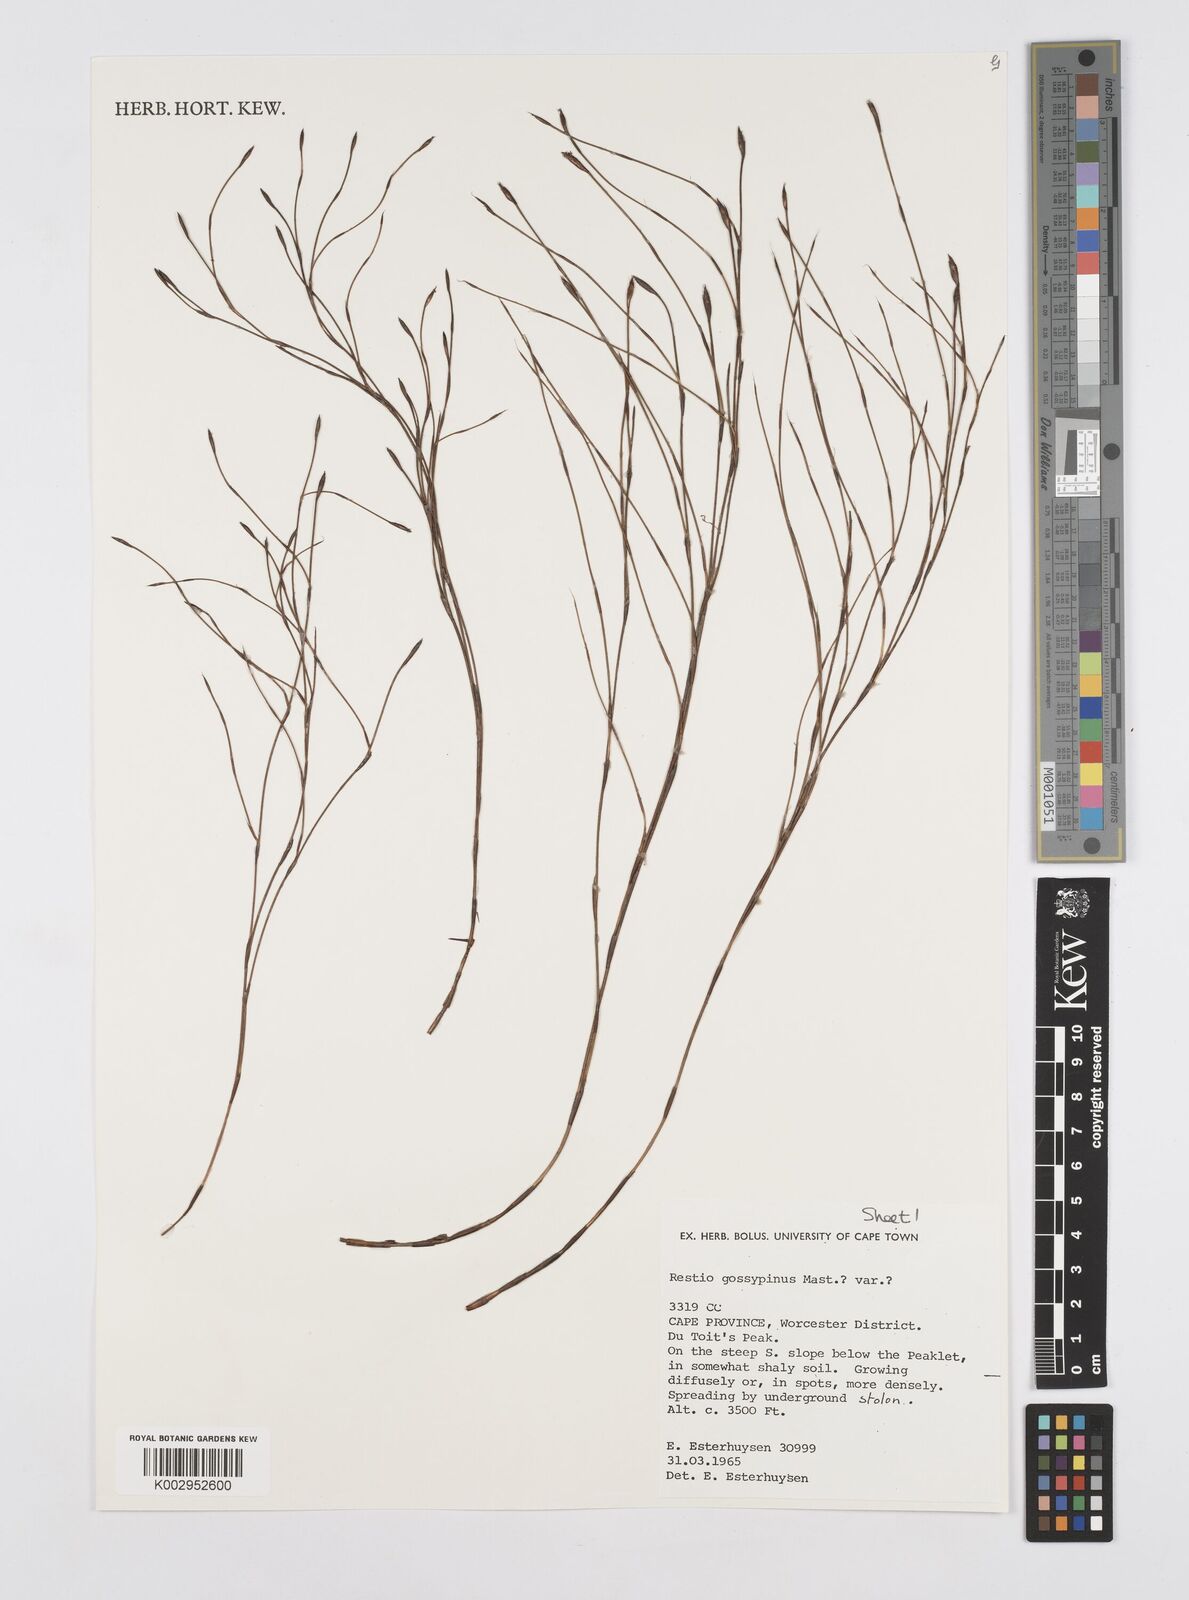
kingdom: Plantae
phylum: Tracheophyta
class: Liliopsida
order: Poales
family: Restionaceae
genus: Restio
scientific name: Restio gossypinus
